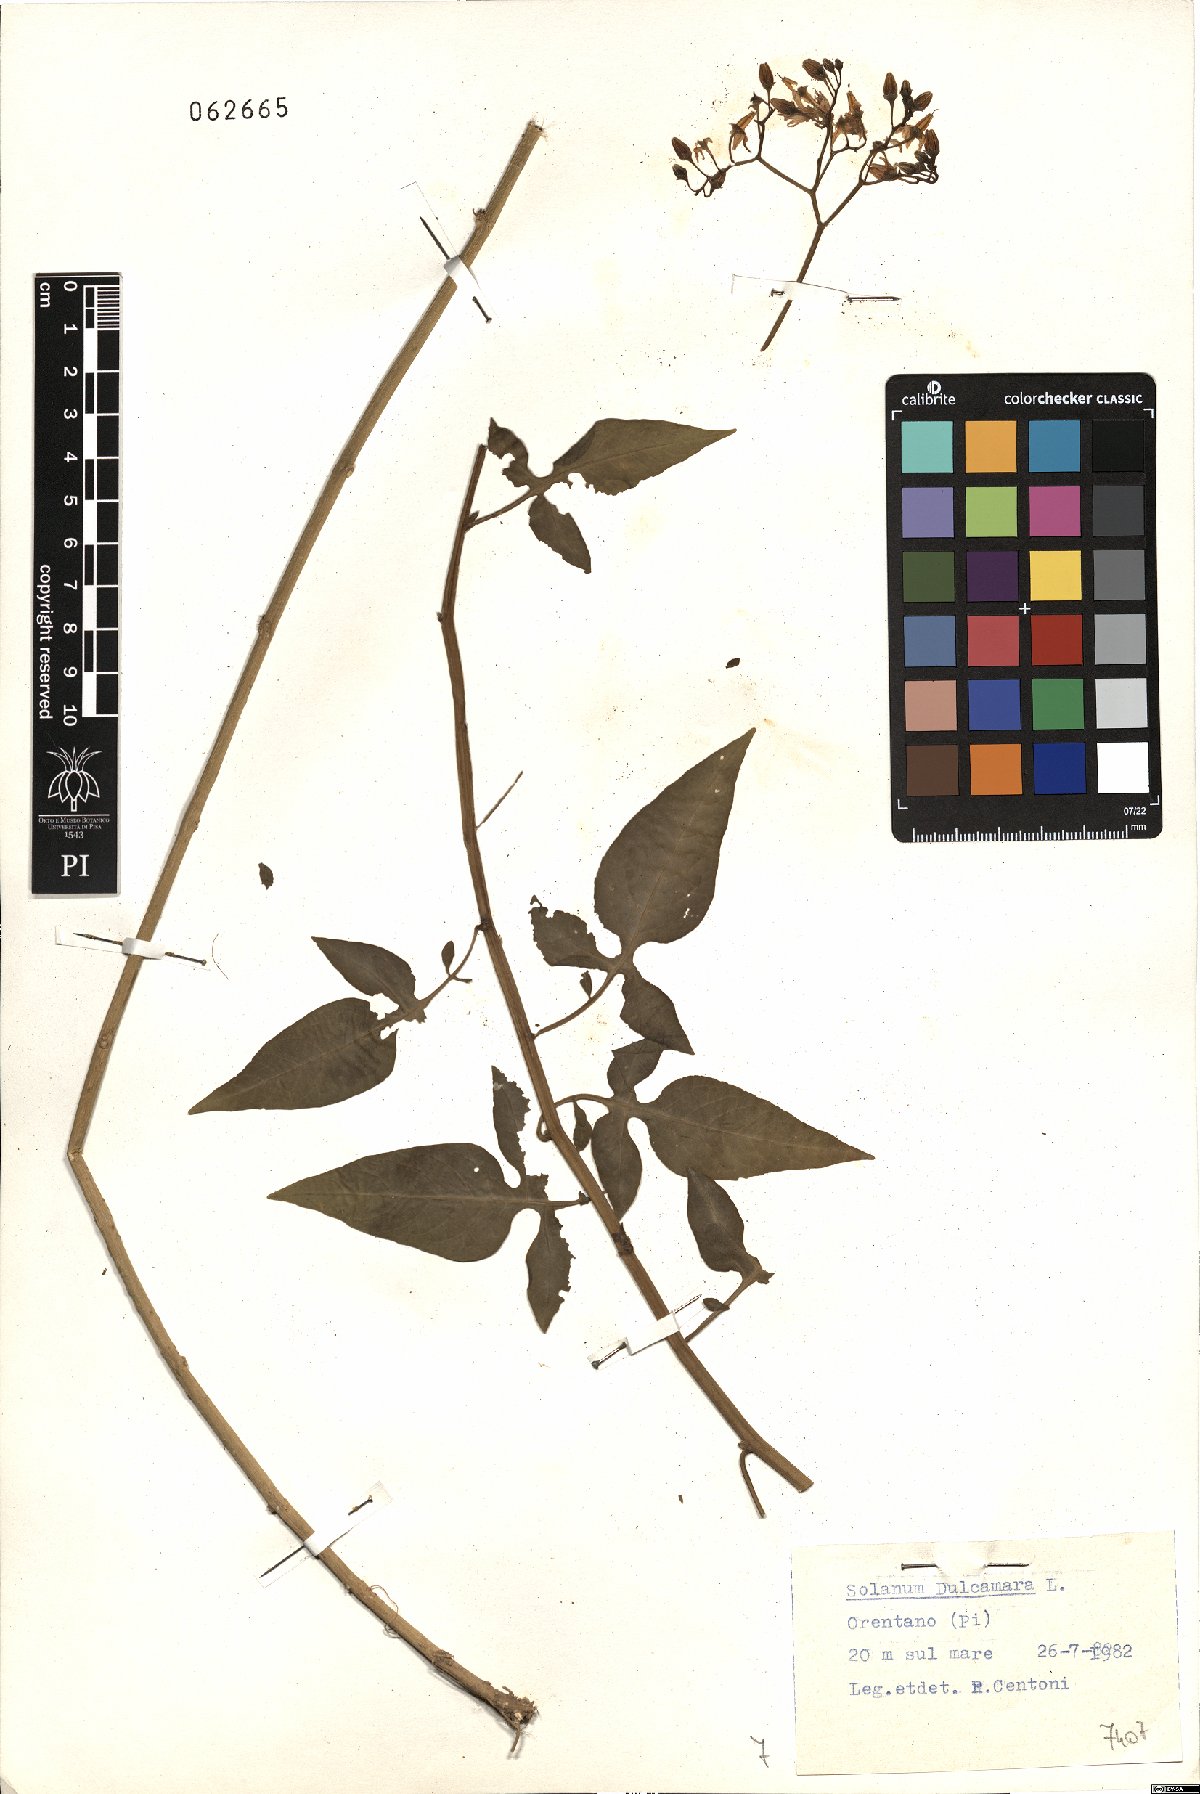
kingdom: Plantae
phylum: Tracheophyta
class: Magnoliopsida
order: Solanales
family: Solanaceae
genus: Solanum
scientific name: Solanum dulcamara
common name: Climbing nightshade
